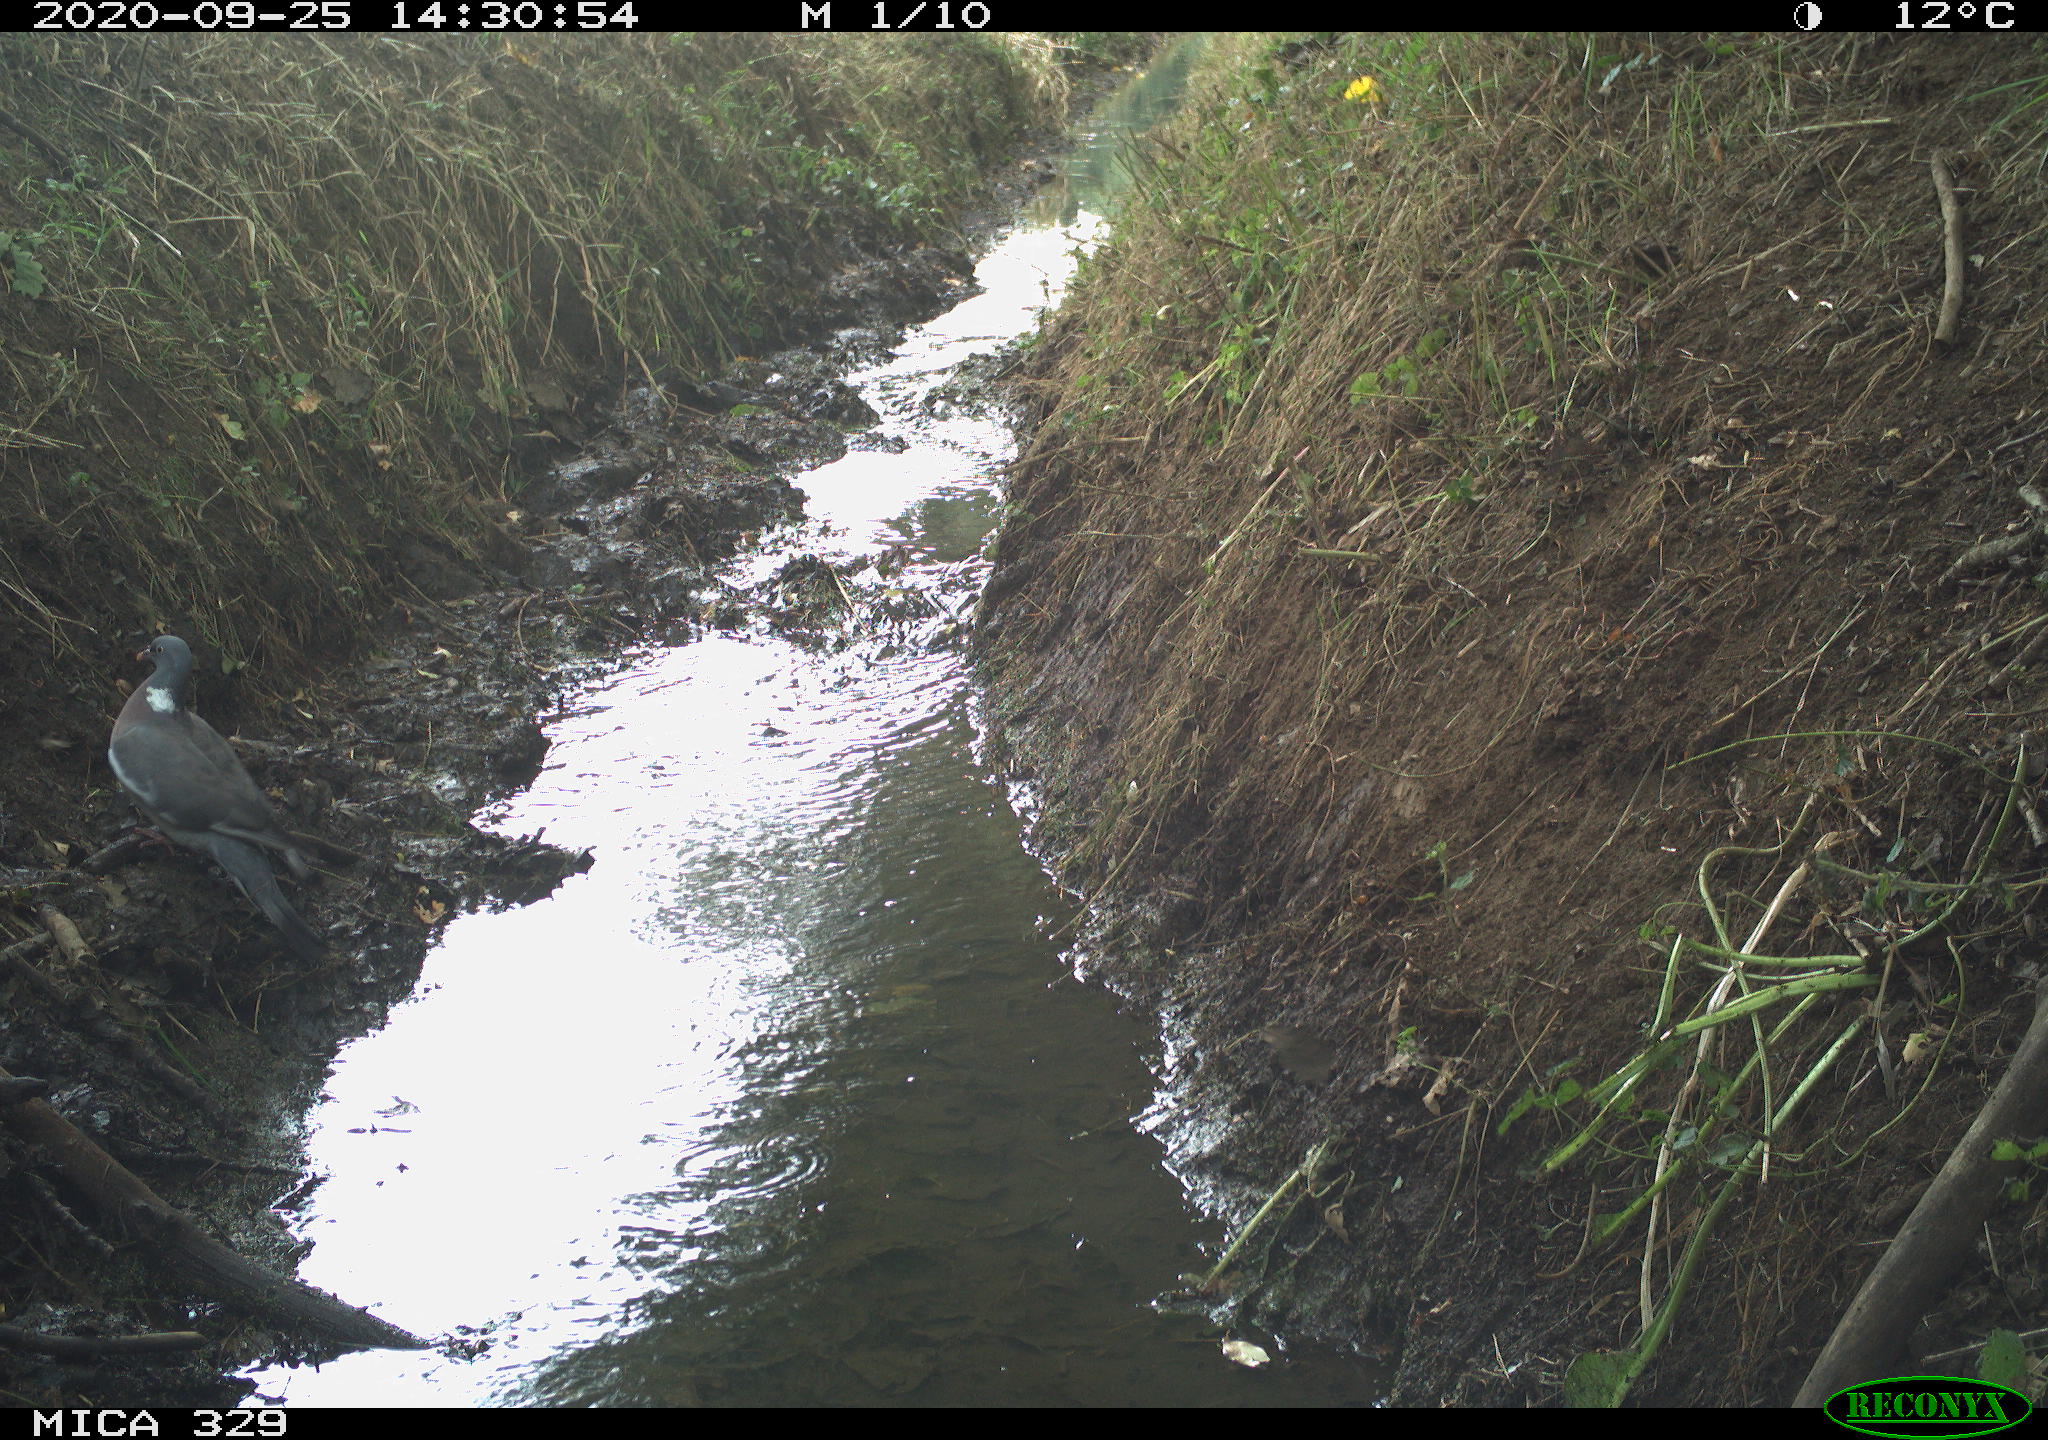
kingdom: Animalia
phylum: Chordata
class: Aves
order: Columbiformes
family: Columbidae
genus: Columba
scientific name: Columba palumbus
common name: Common wood pigeon
